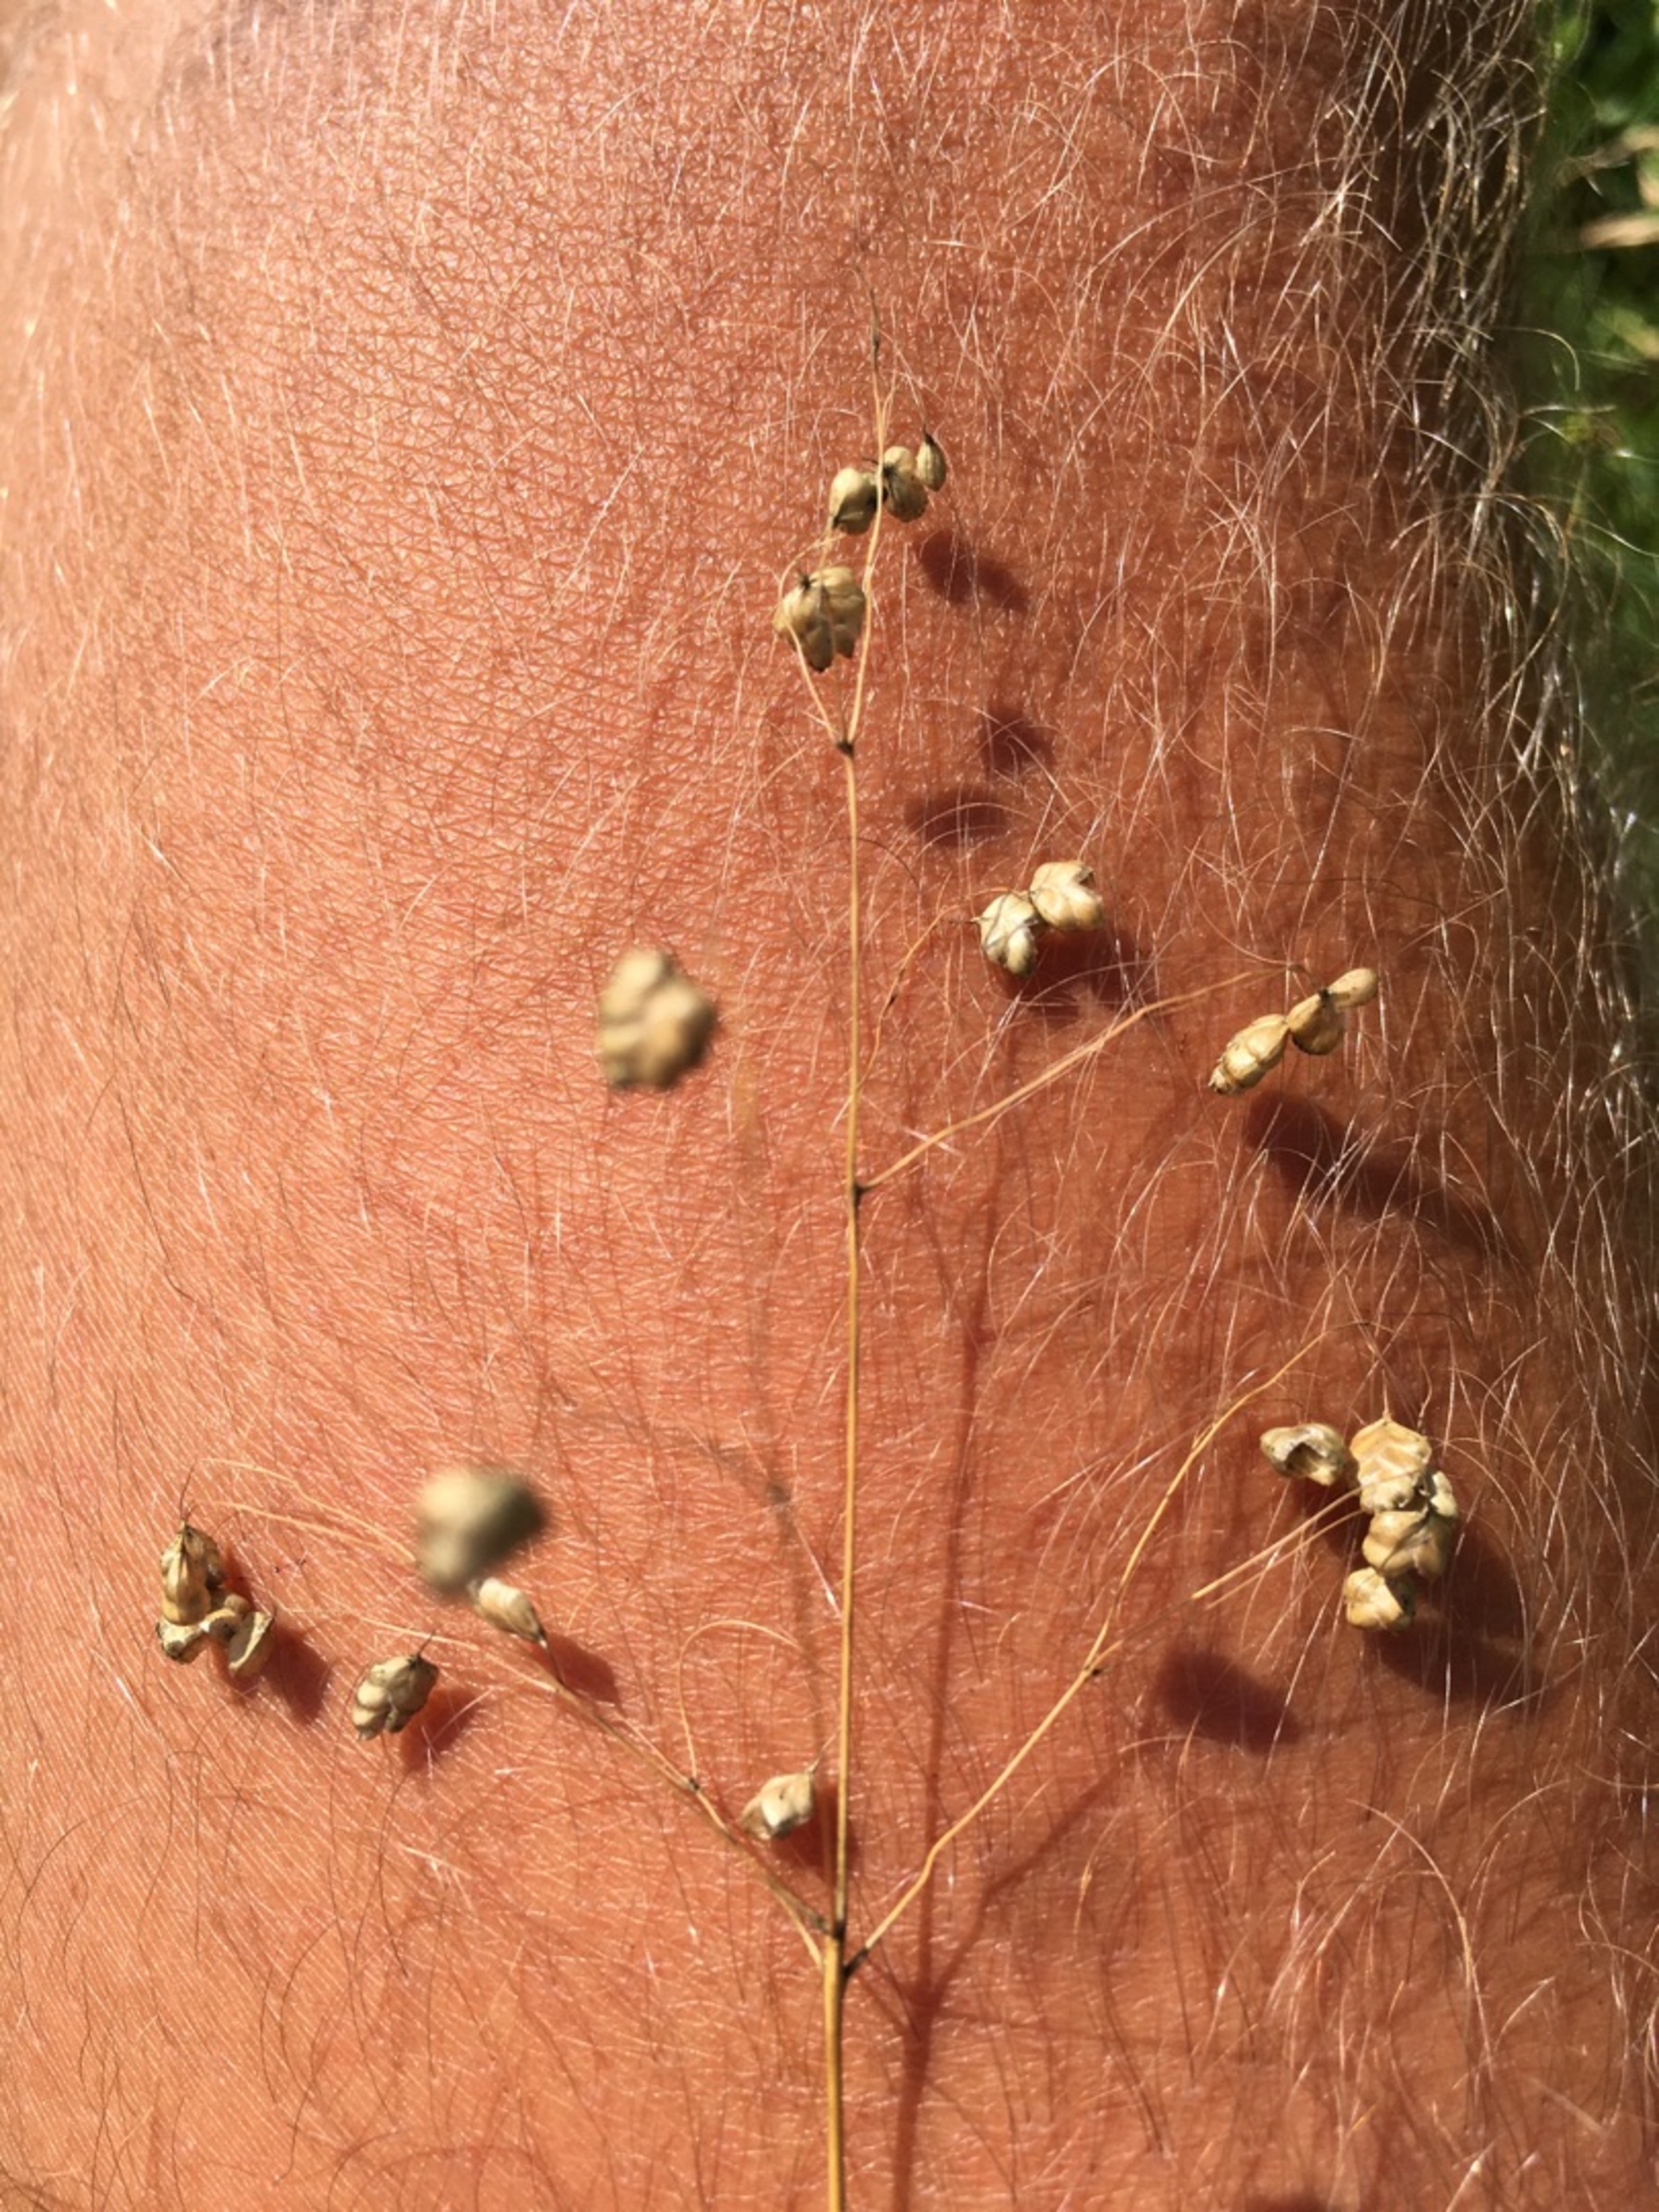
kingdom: Plantae
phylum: Tracheophyta
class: Liliopsida
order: Poales
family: Poaceae
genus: Briza
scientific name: Briza media
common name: Hjertegræs
